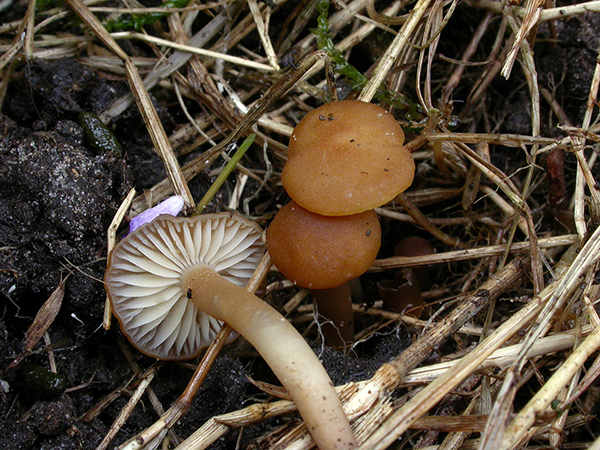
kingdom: Fungi
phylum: Basidiomycota
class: Agaricomycetes
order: Agaricales
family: Clavariaceae
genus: Camarophyllopsis
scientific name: Camarophyllopsis schulzeri
